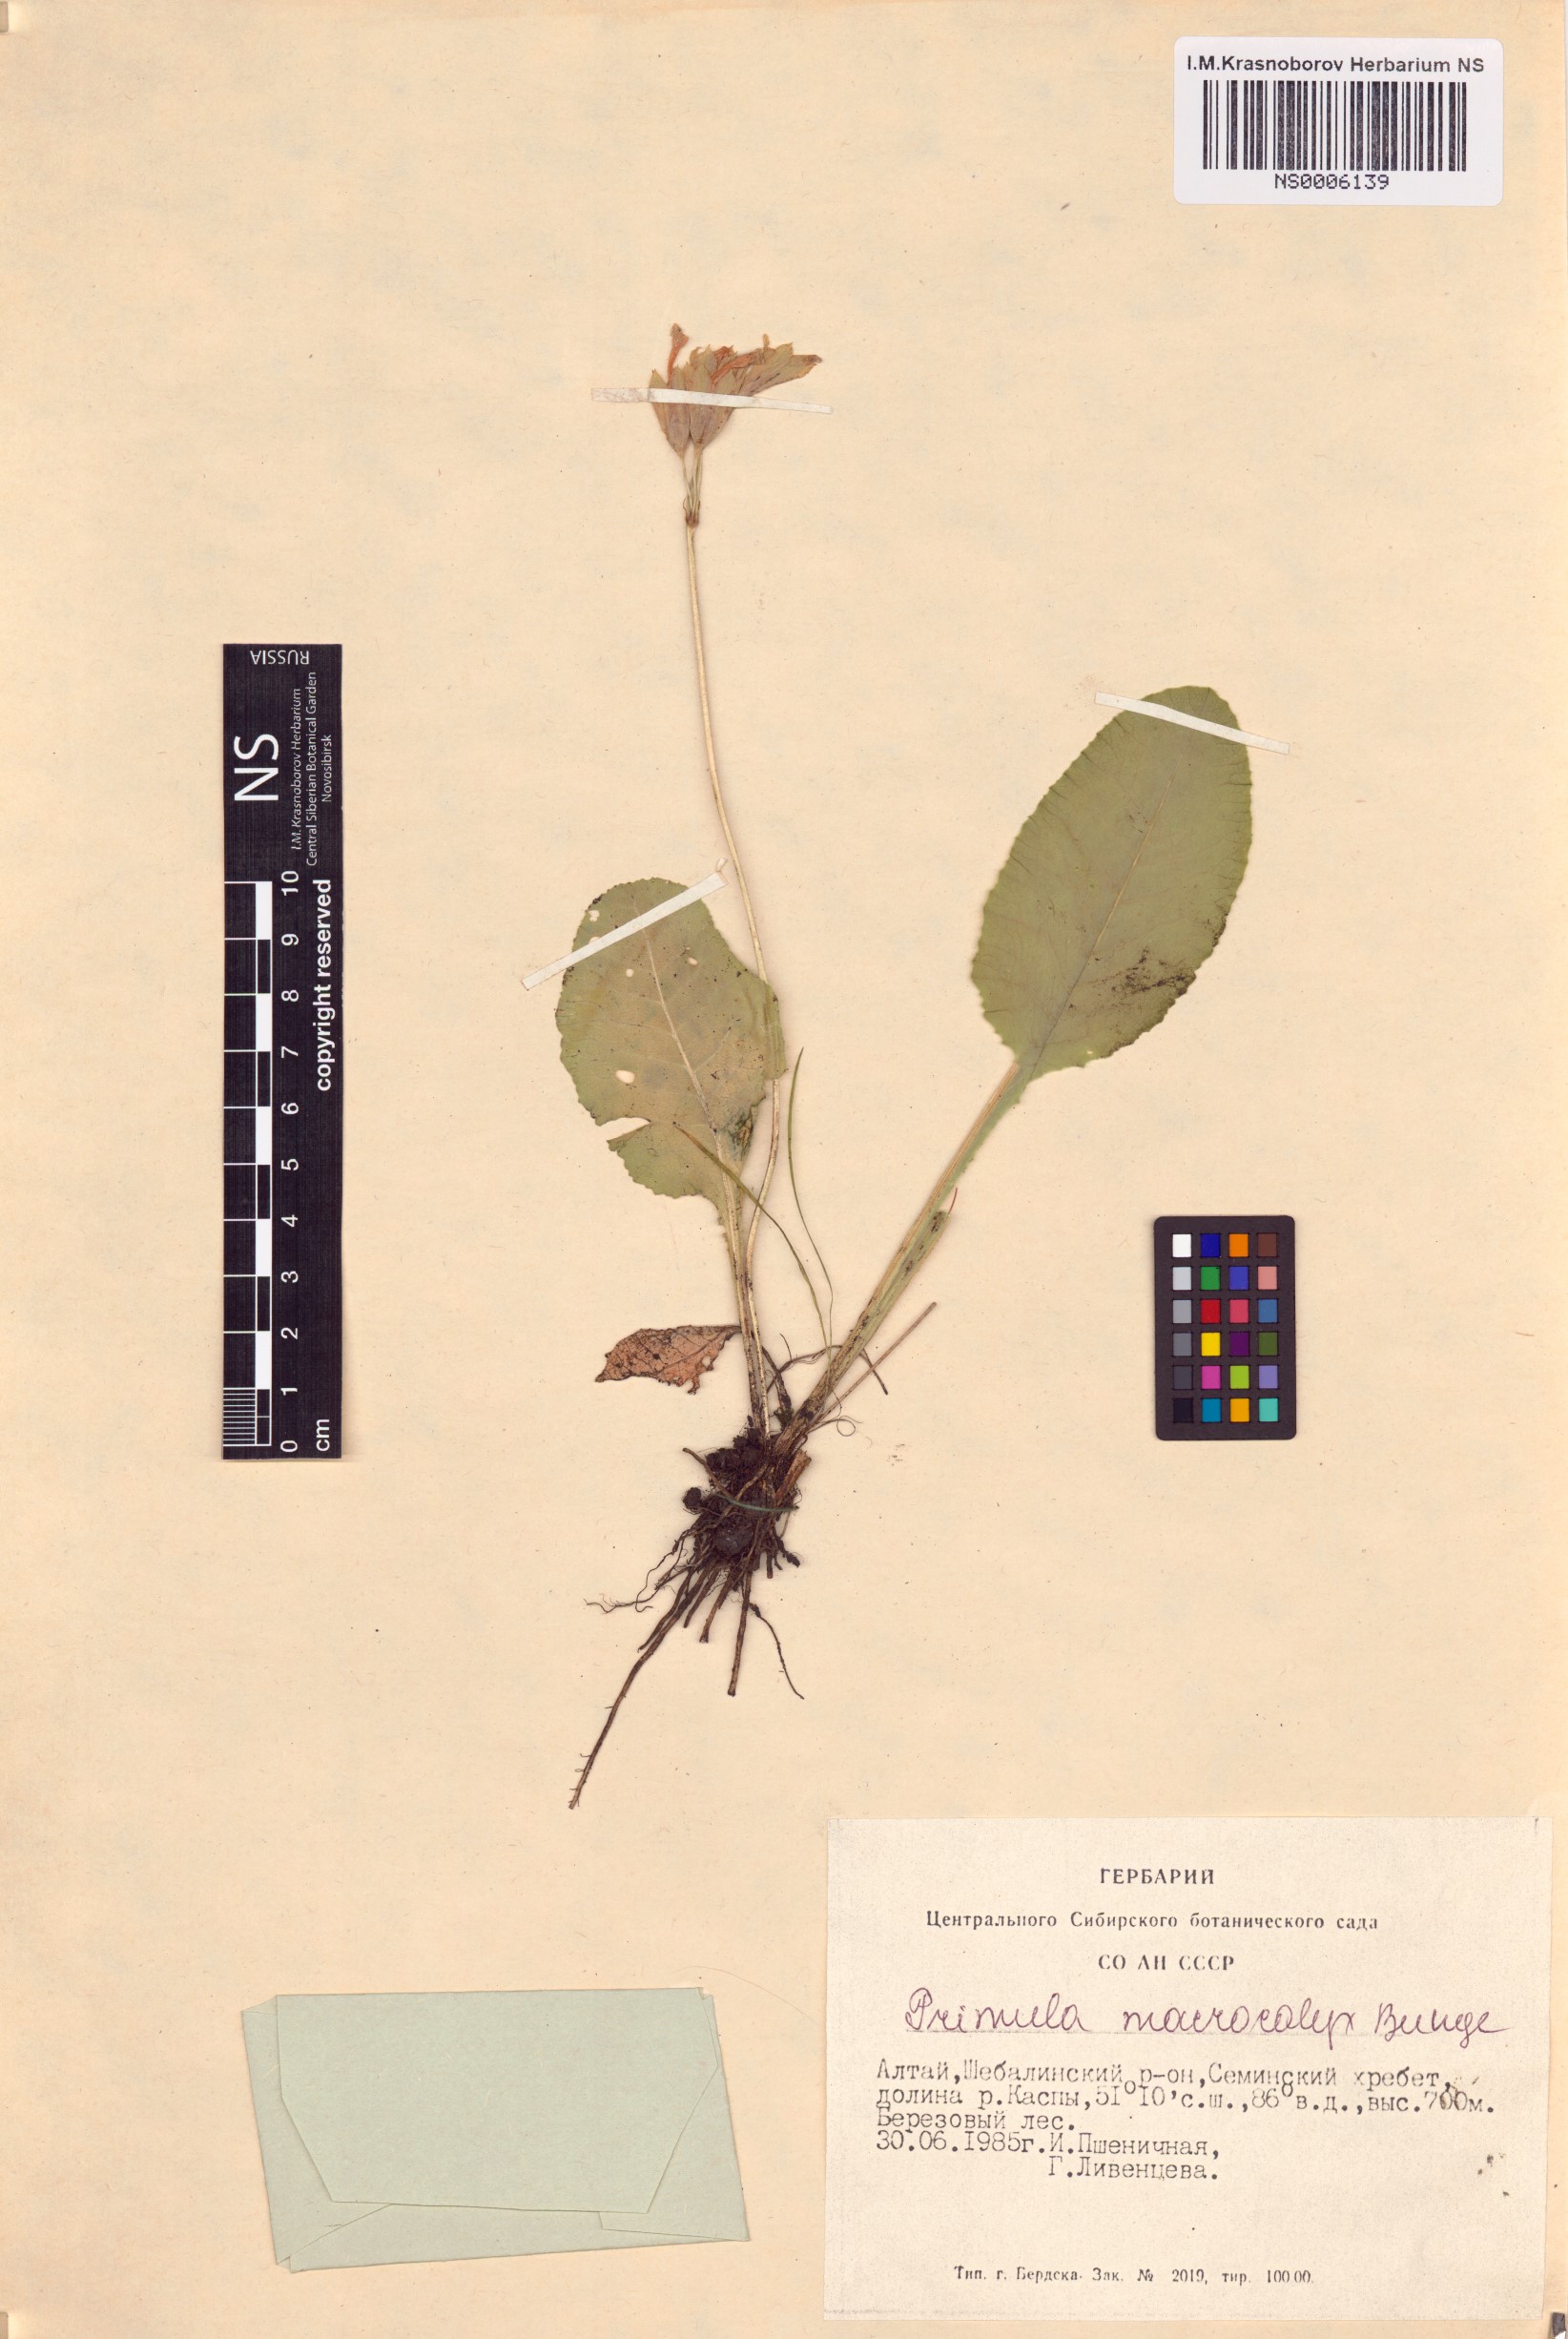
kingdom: Plantae
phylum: Tracheophyta
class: Magnoliopsida
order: Ericales
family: Primulaceae
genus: Primula
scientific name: Primula veris
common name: Cowslip
